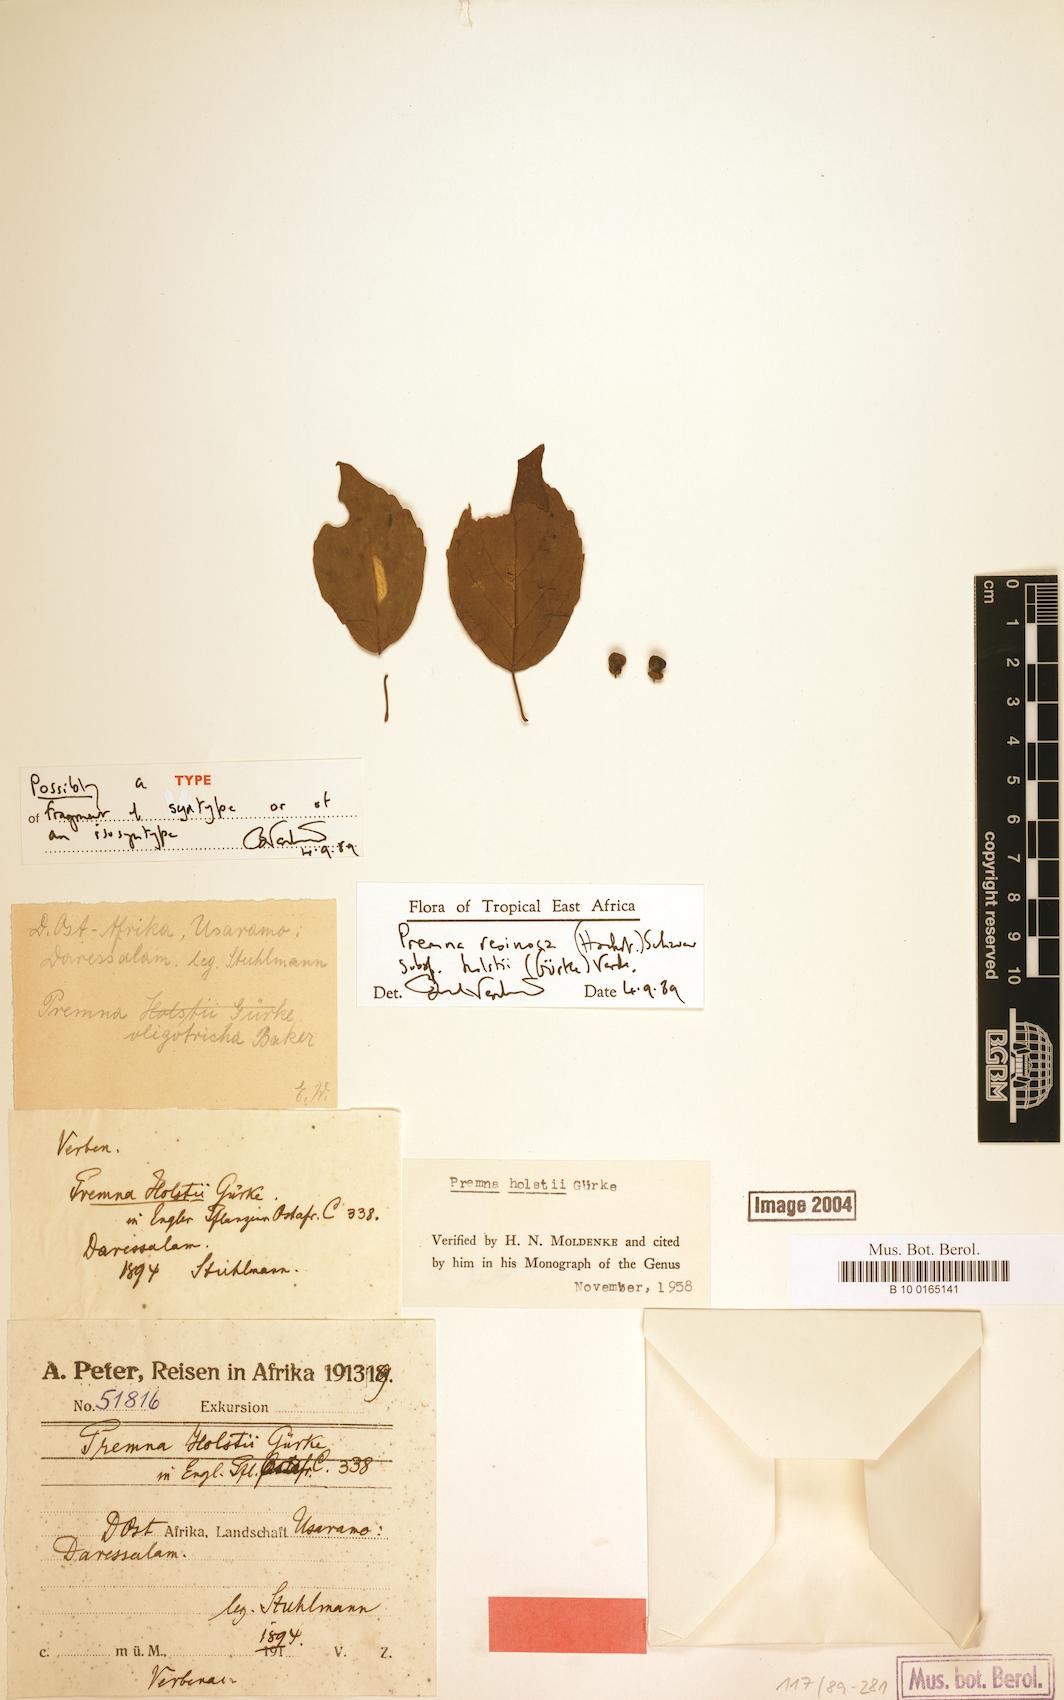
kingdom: Plantae
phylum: Tracheophyta
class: Magnoliopsida
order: Lamiales
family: Lamiaceae
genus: Premna
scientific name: Premna resinosa
